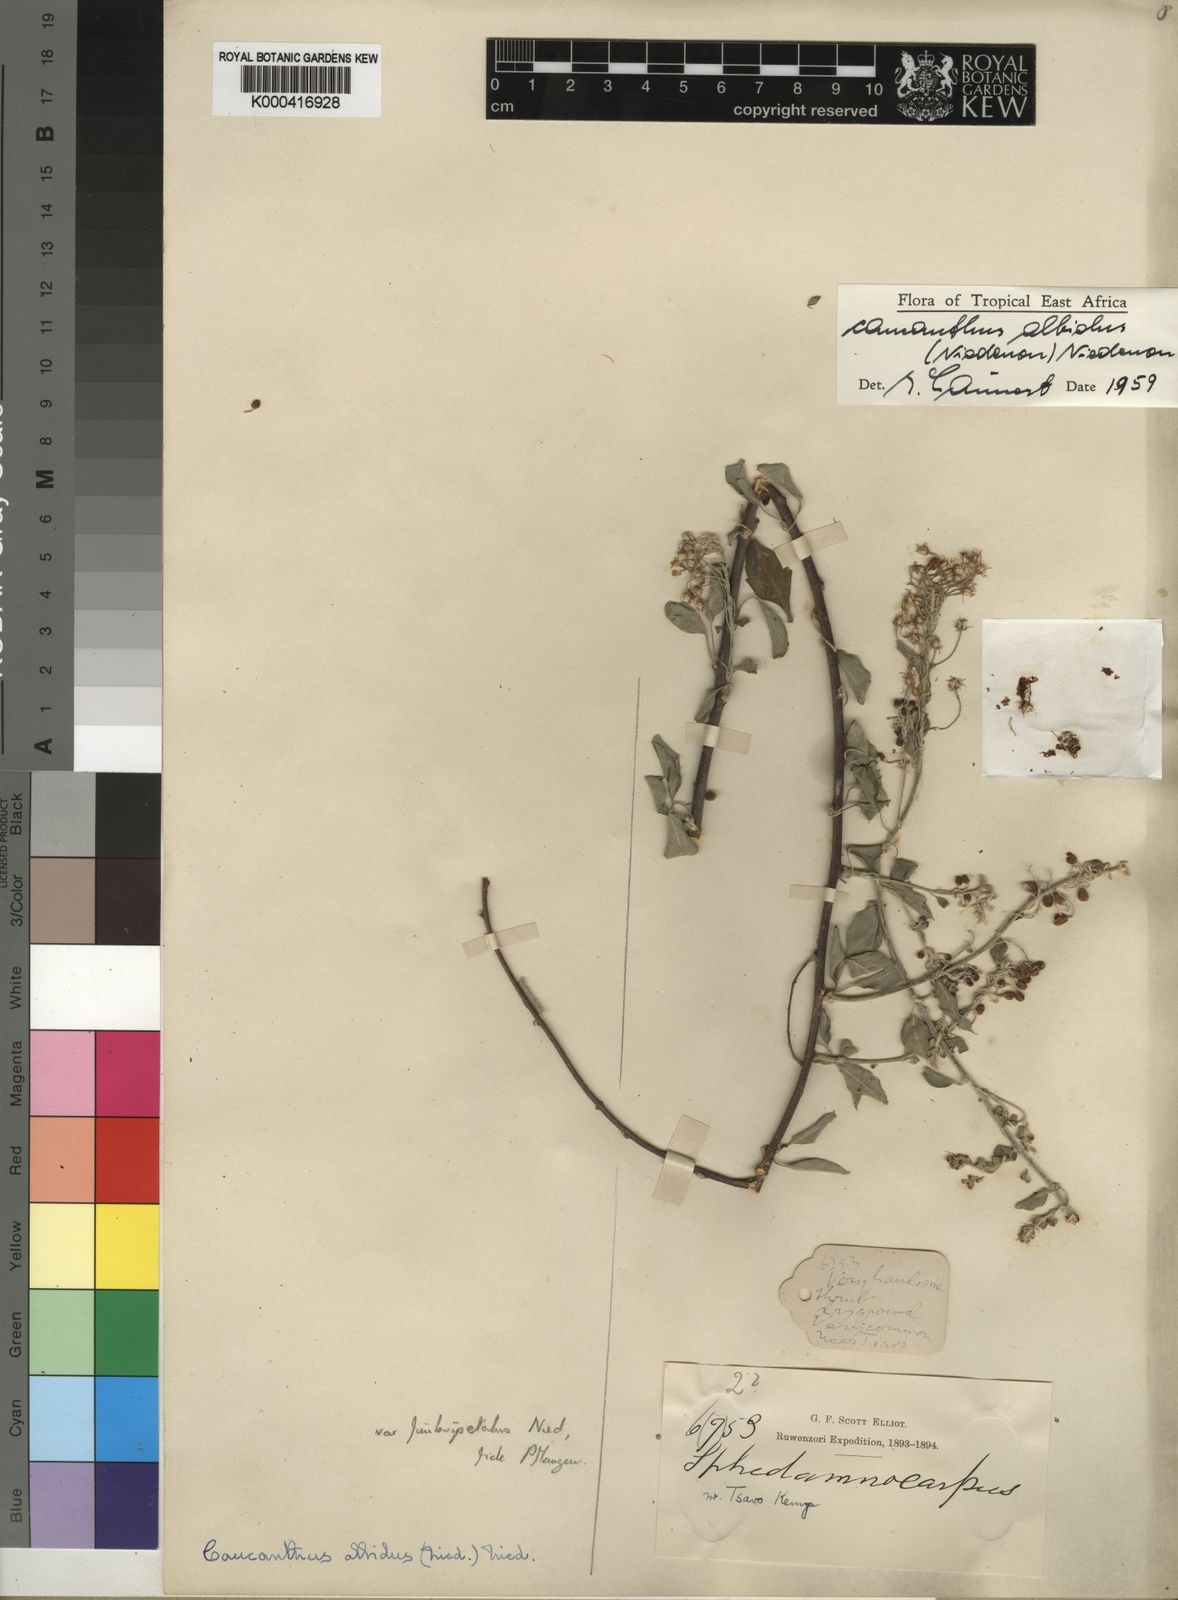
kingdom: Plantae
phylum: Tracheophyta
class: Magnoliopsida
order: Malpighiales
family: Malpighiaceae
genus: Caucanthus
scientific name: Caucanthus albidus
